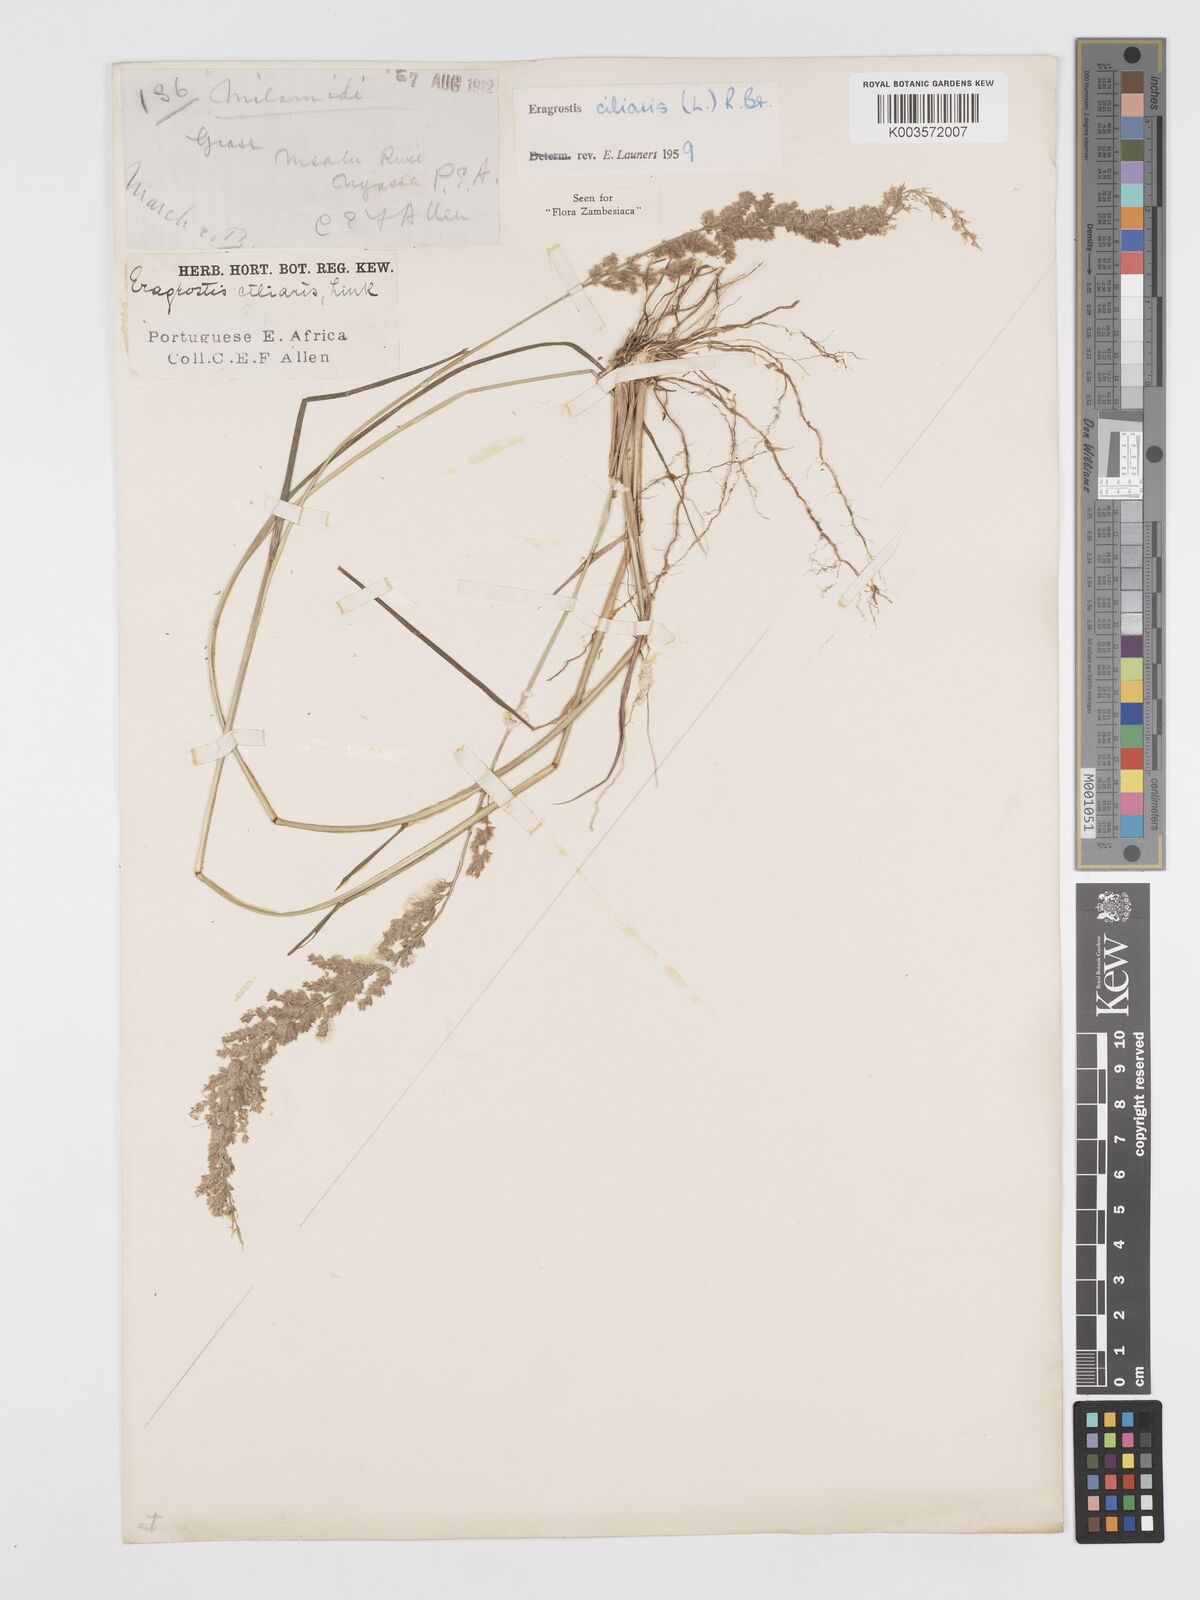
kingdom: Plantae
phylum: Tracheophyta
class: Liliopsida
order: Poales
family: Poaceae
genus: Eragrostis
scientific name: Eragrostis ciliaris
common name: Gophertail lovegrass
